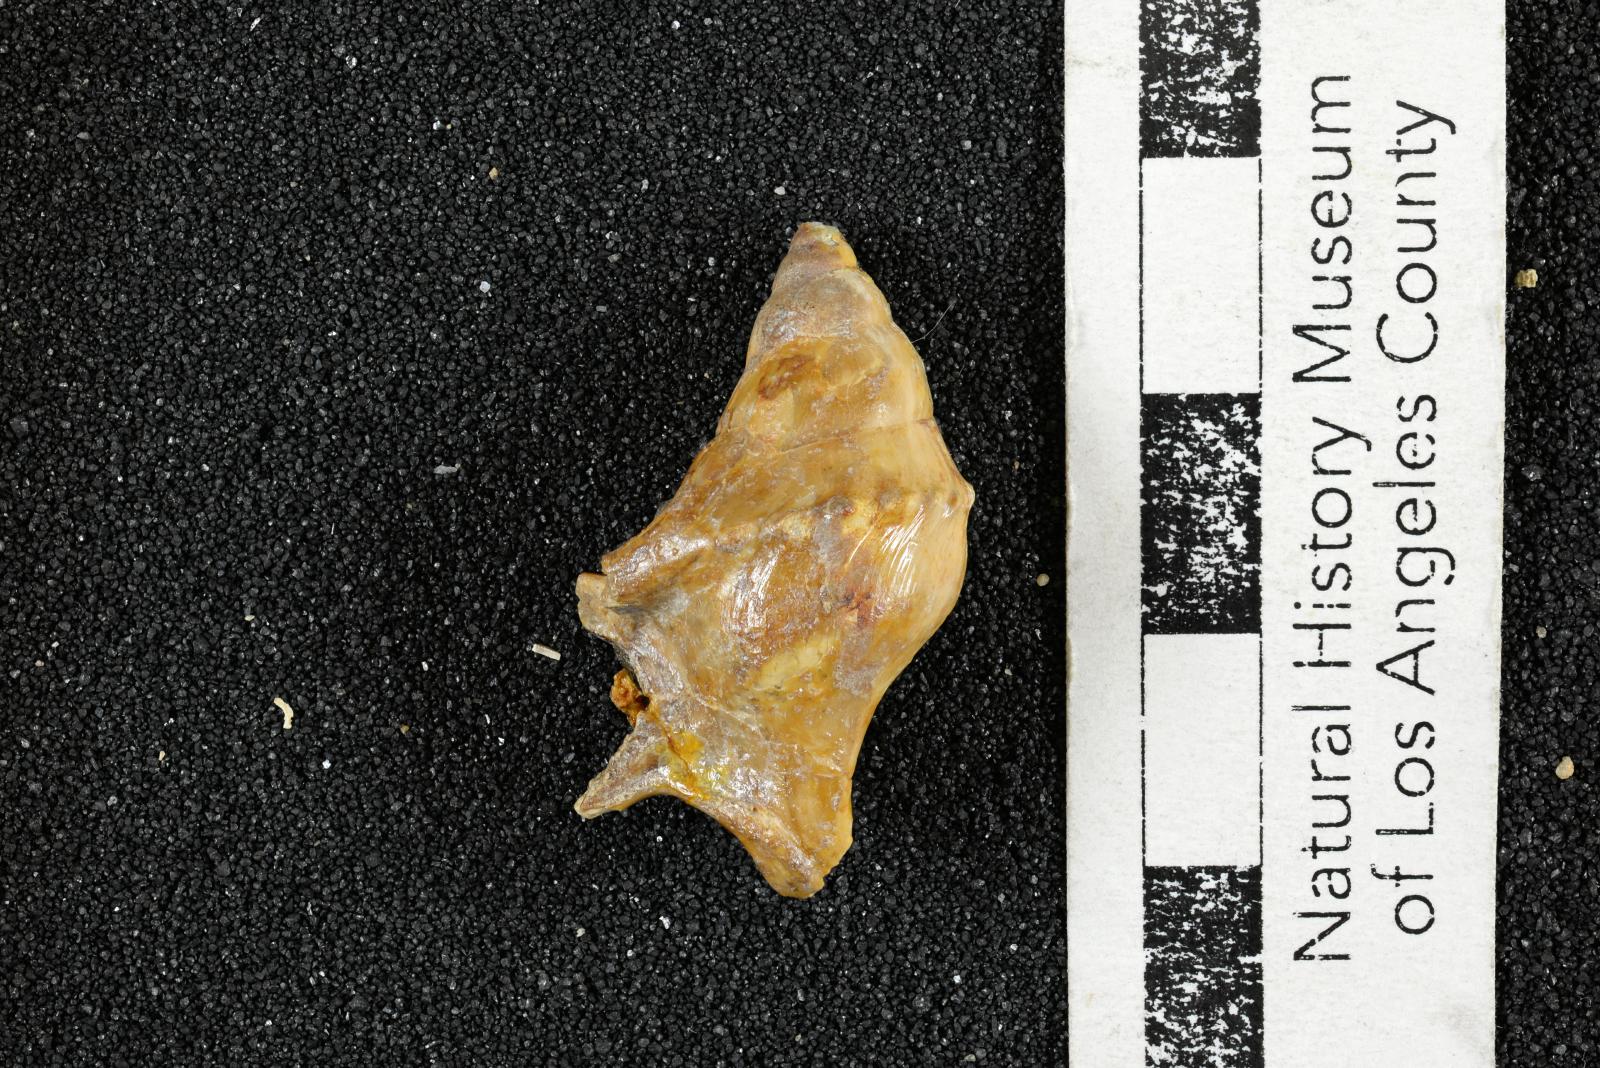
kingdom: Animalia
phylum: Mollusca
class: Gastropoda
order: Littorinimorpha
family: Aporrhaidae
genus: Lispodesthes
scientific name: Lispodesthes Pugnellus rotundus
